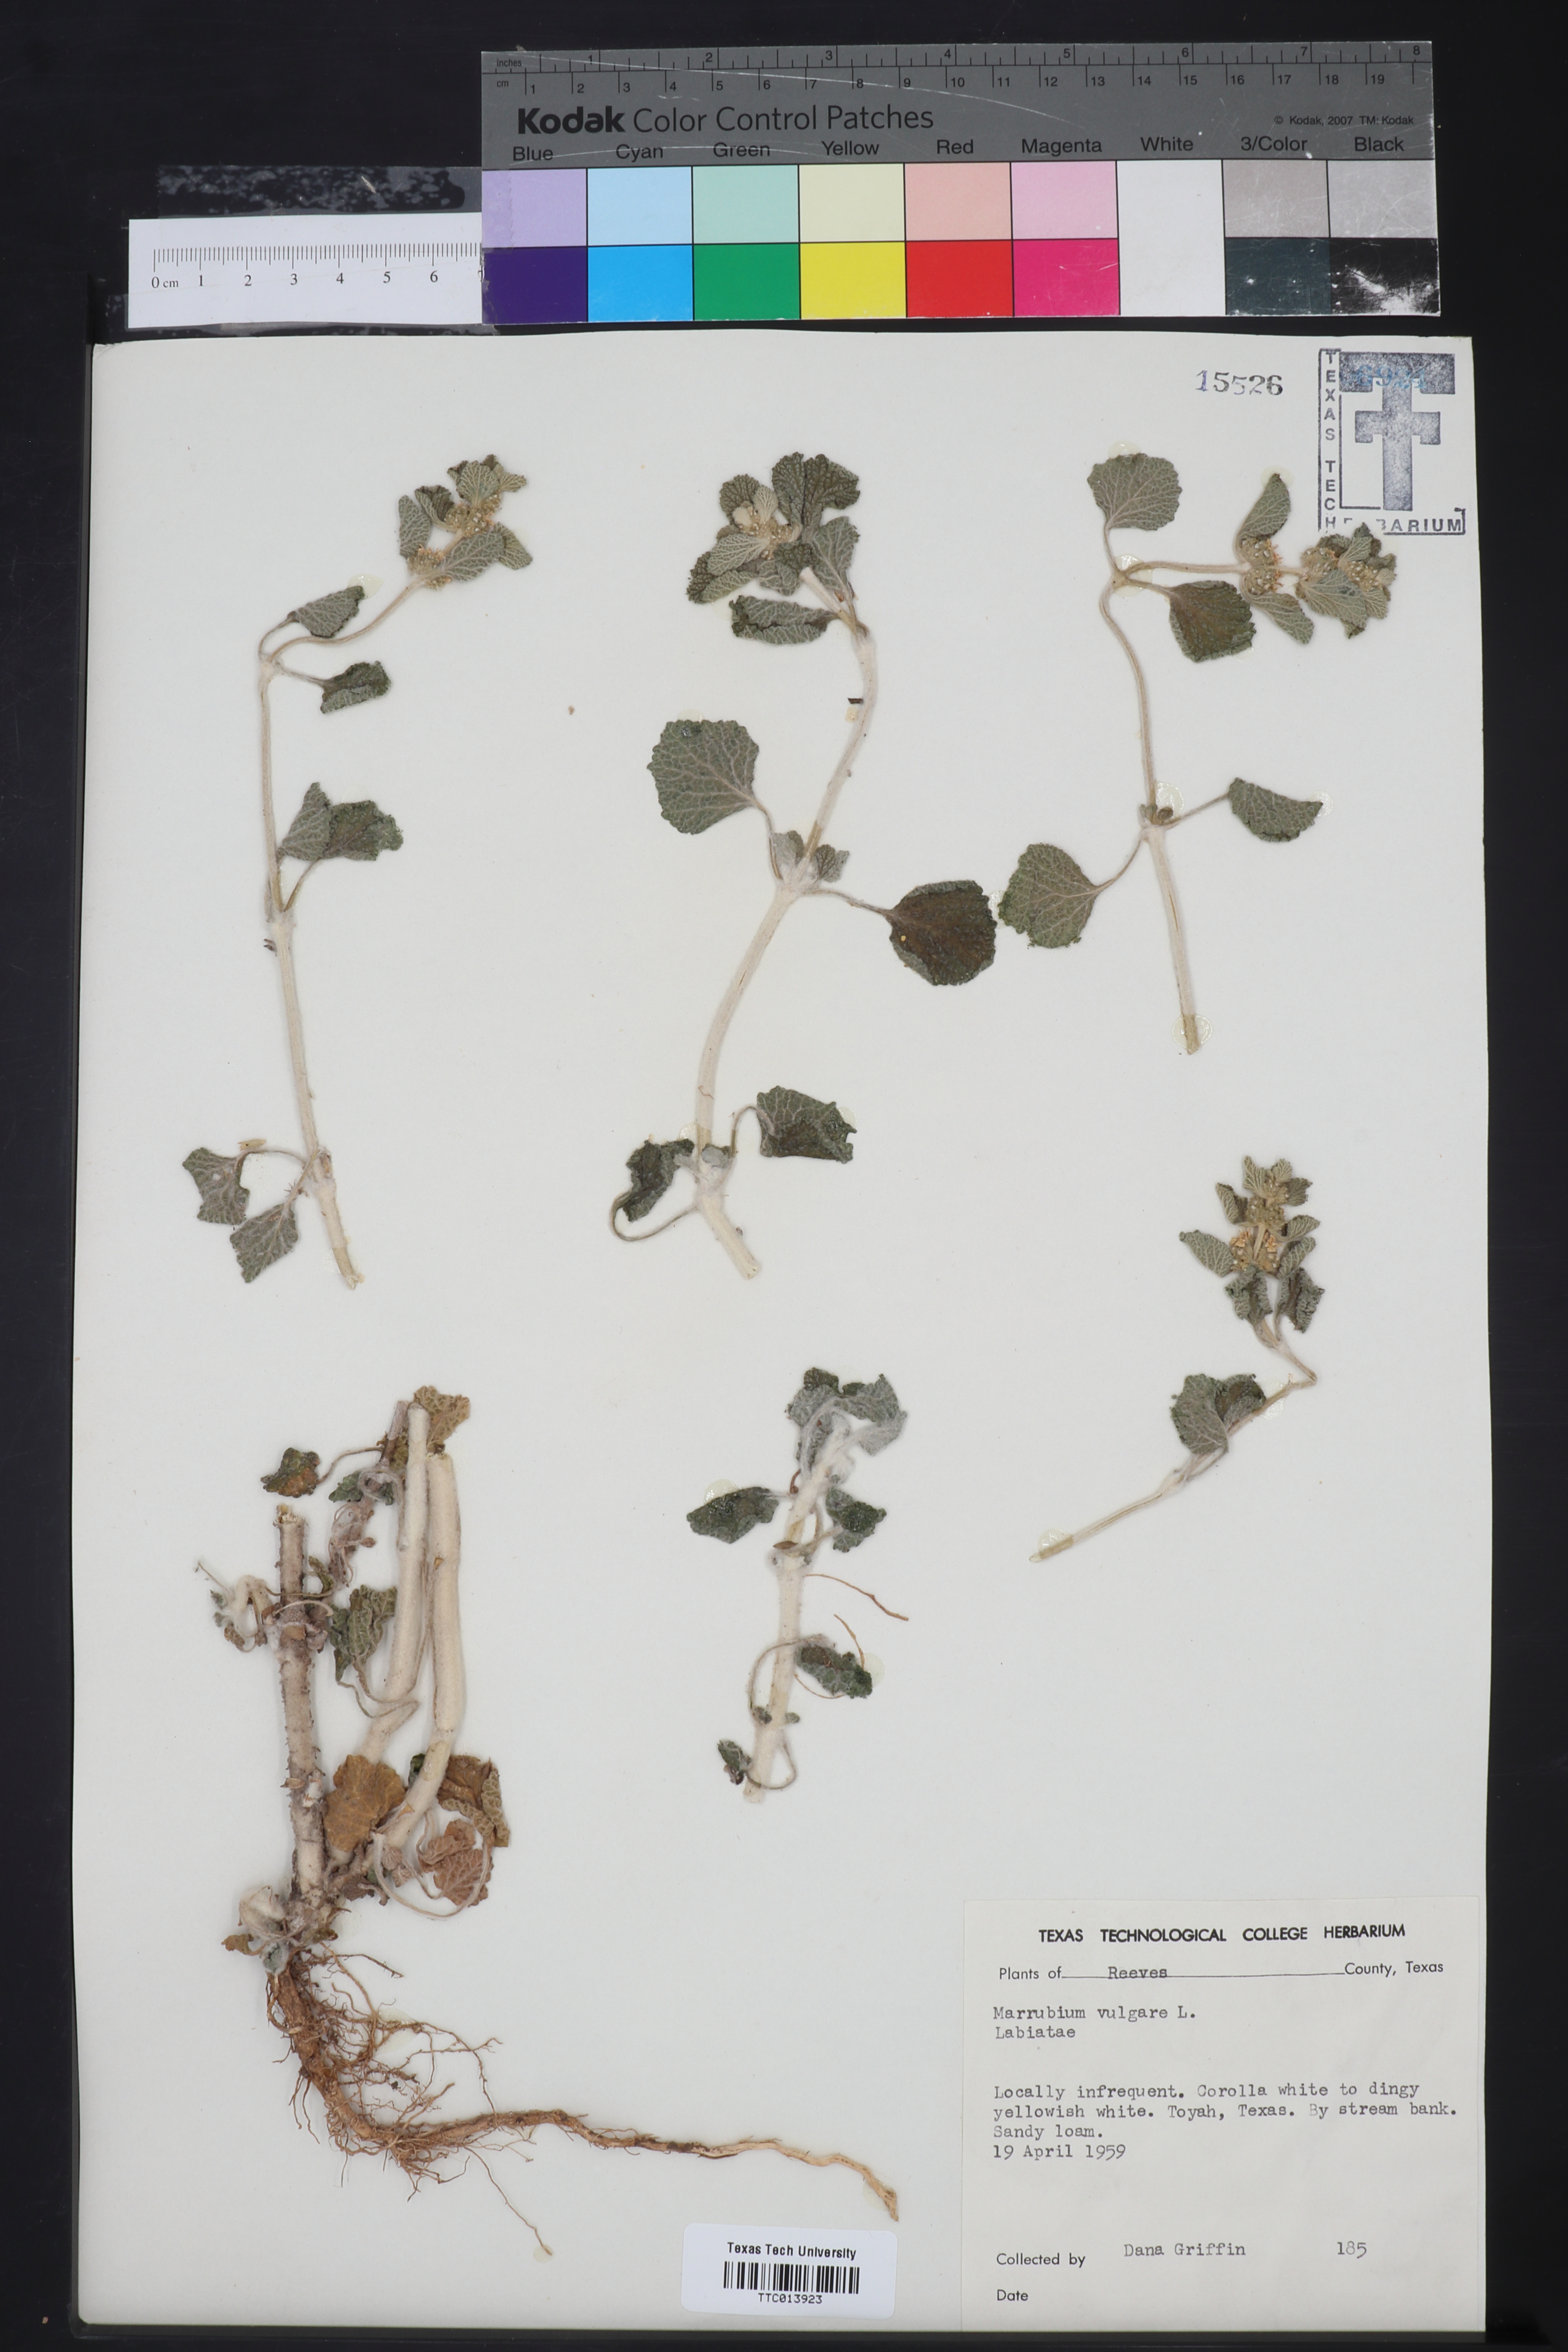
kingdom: Plantae
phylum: Tracheophyta
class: Magnoliopsida
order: Lamiales
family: Lamiaceae
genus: Marrubium
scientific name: Marrubium vulgare
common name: Horehound
